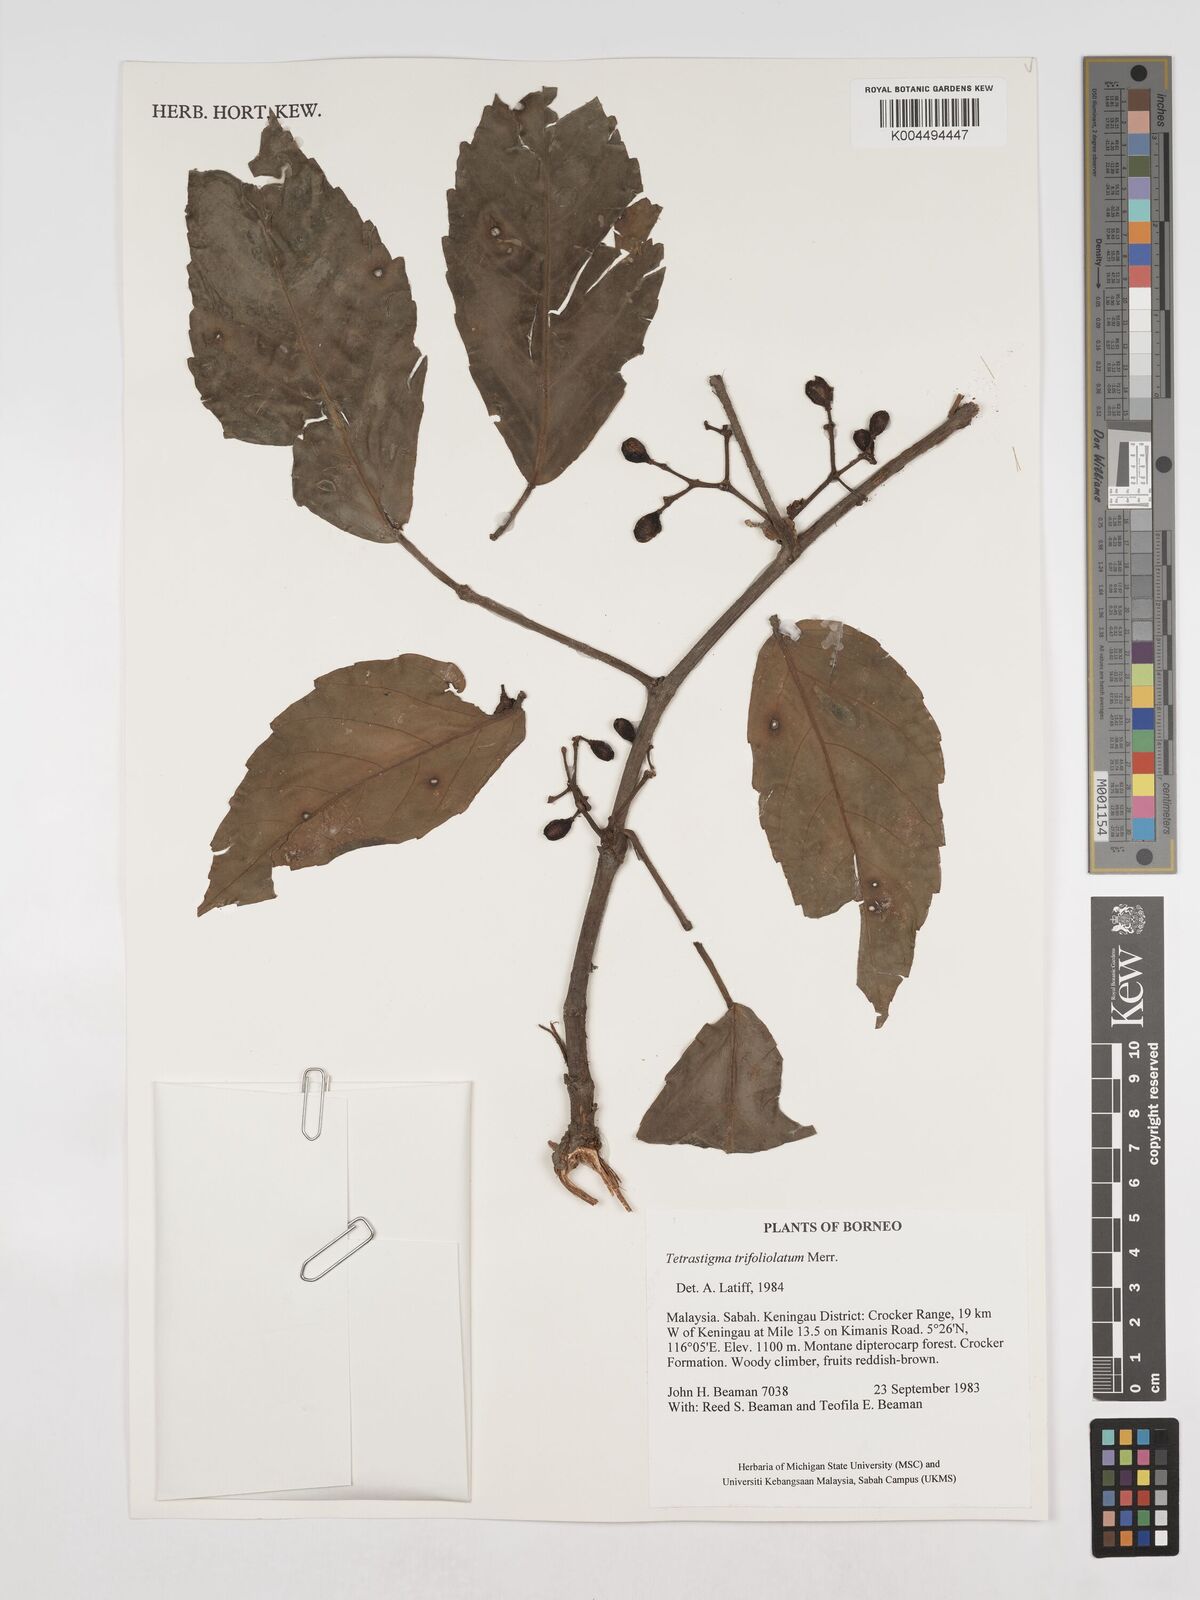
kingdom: Plantae
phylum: Tracheophyta
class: Magnoliopsida
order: Vitales
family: Vitaceae
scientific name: Vitaceae
